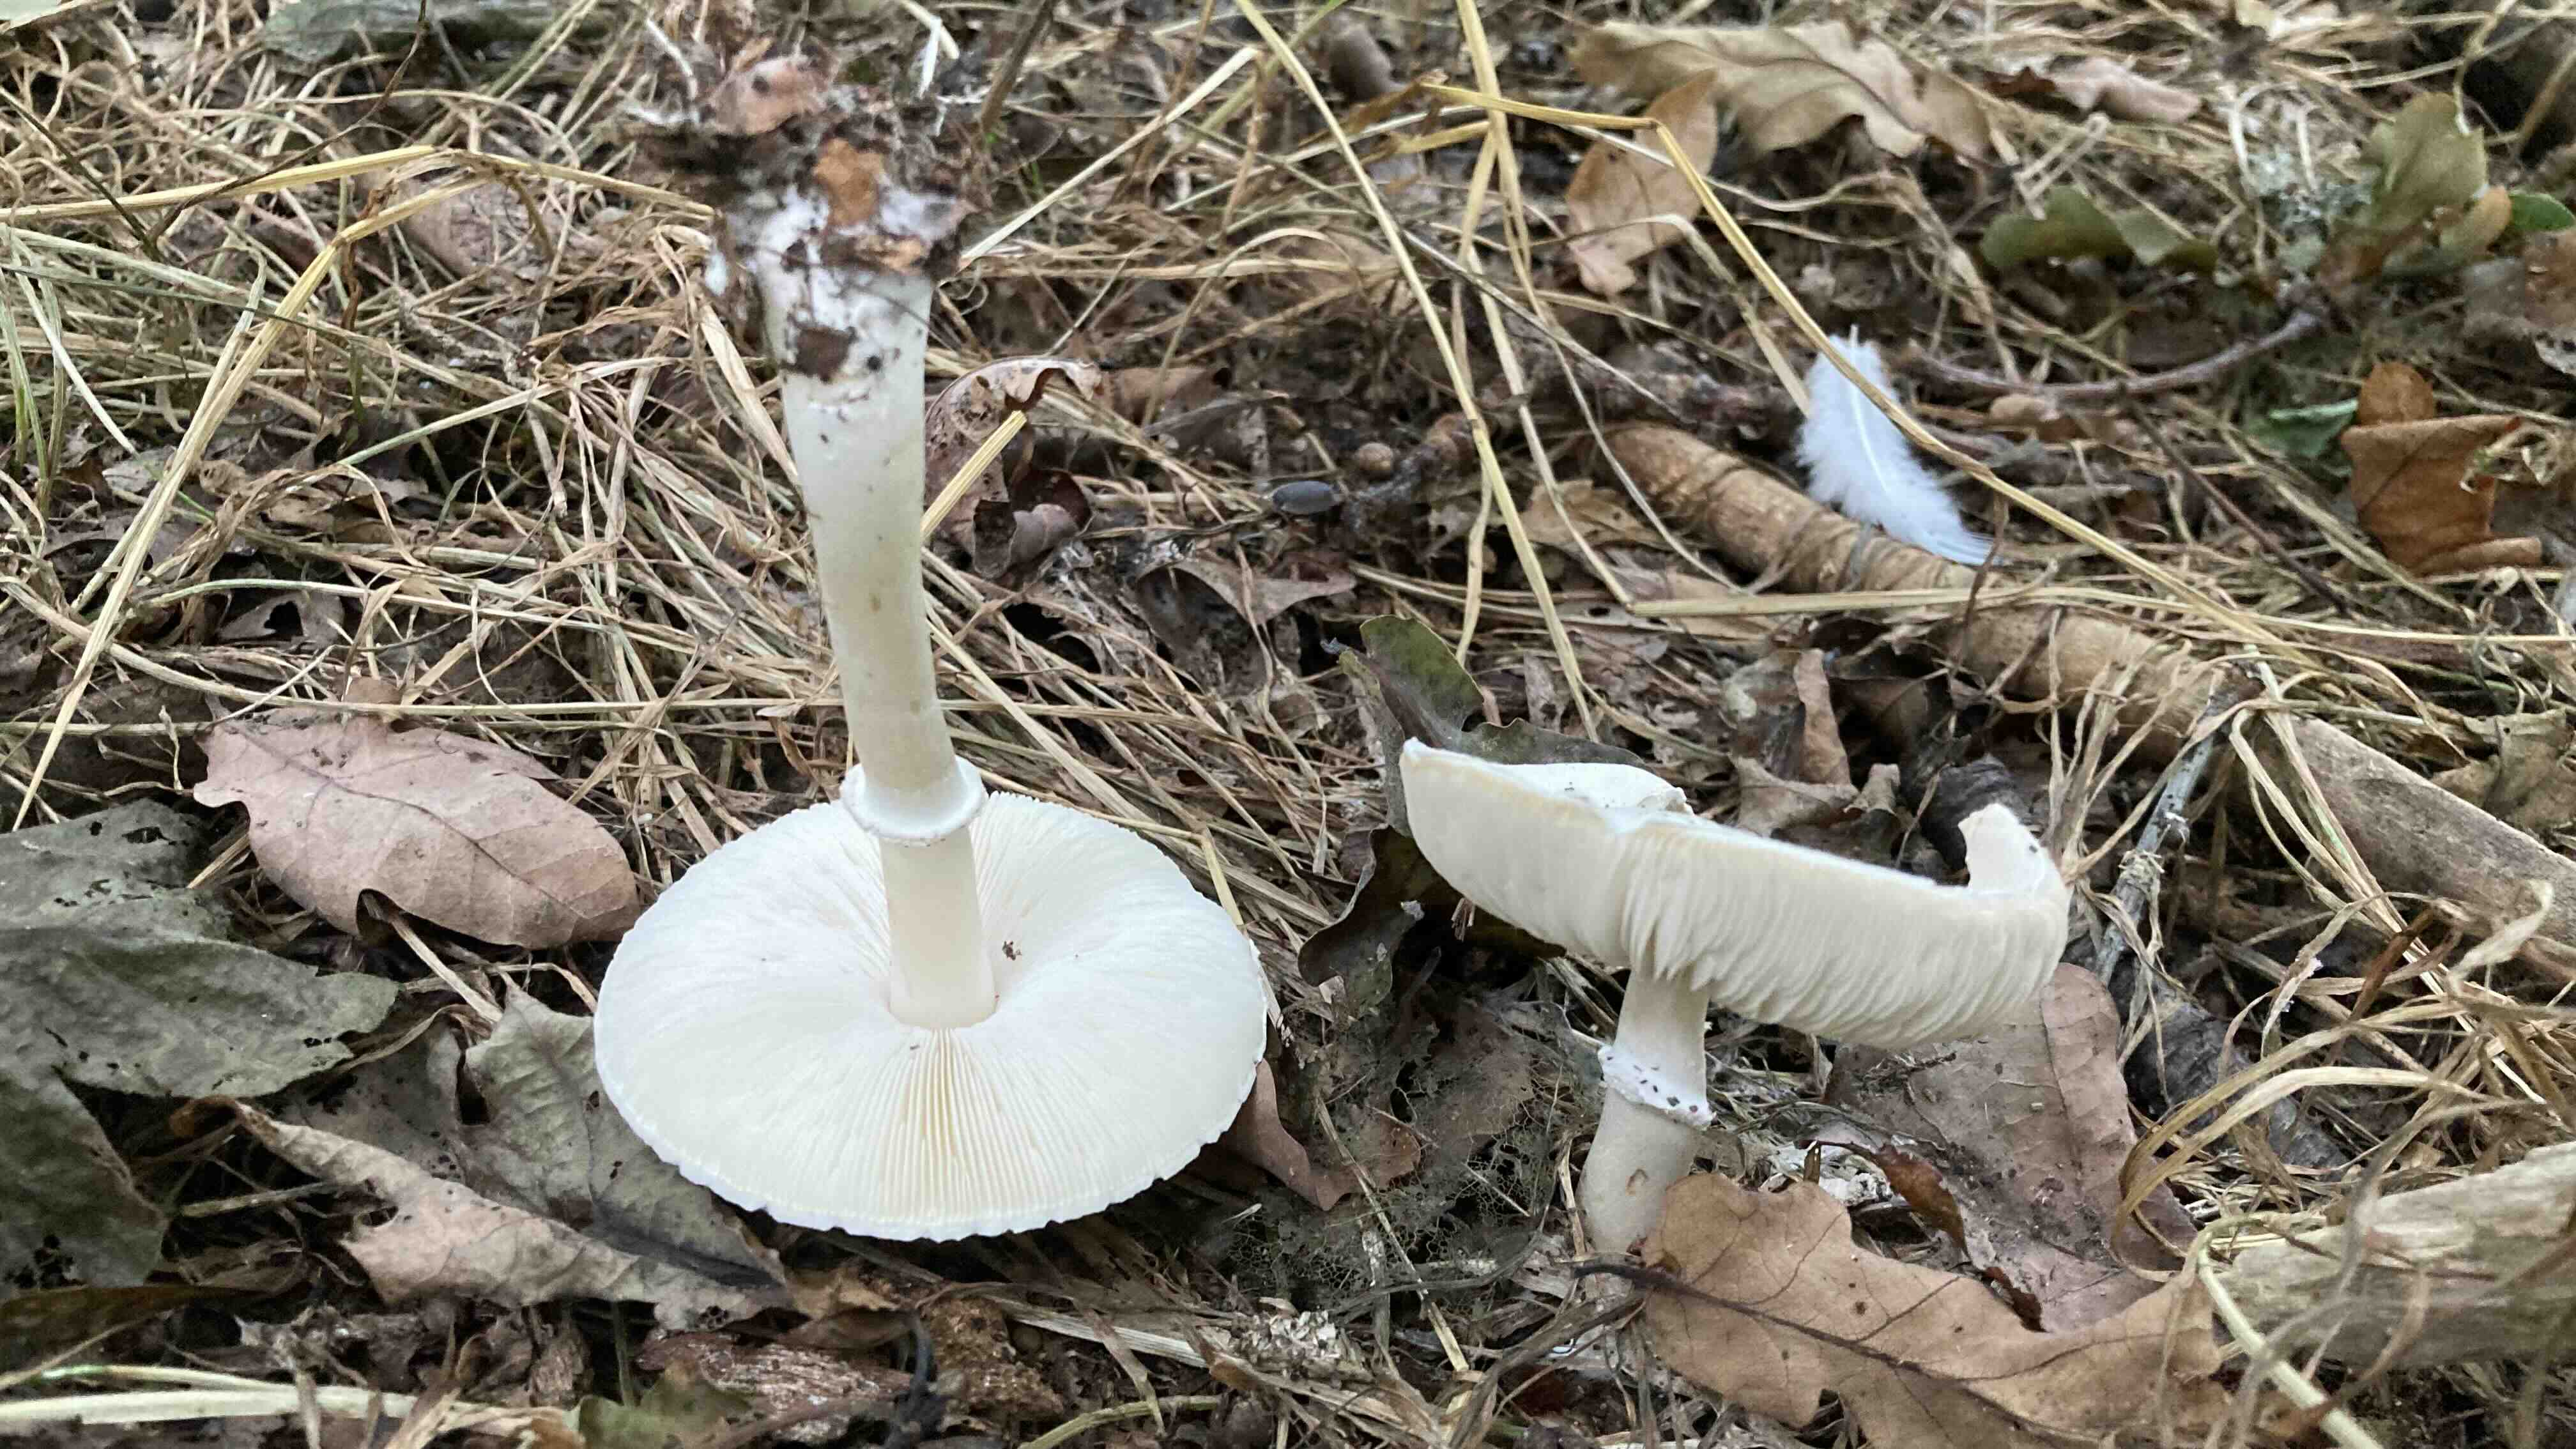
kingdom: Fungi
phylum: Basidiomycota
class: Agaricomycetes
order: Agaricales
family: Agaricaceae
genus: Leucoagaricus
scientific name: Leucoagaricus leucothites
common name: rosabladet silkehat
